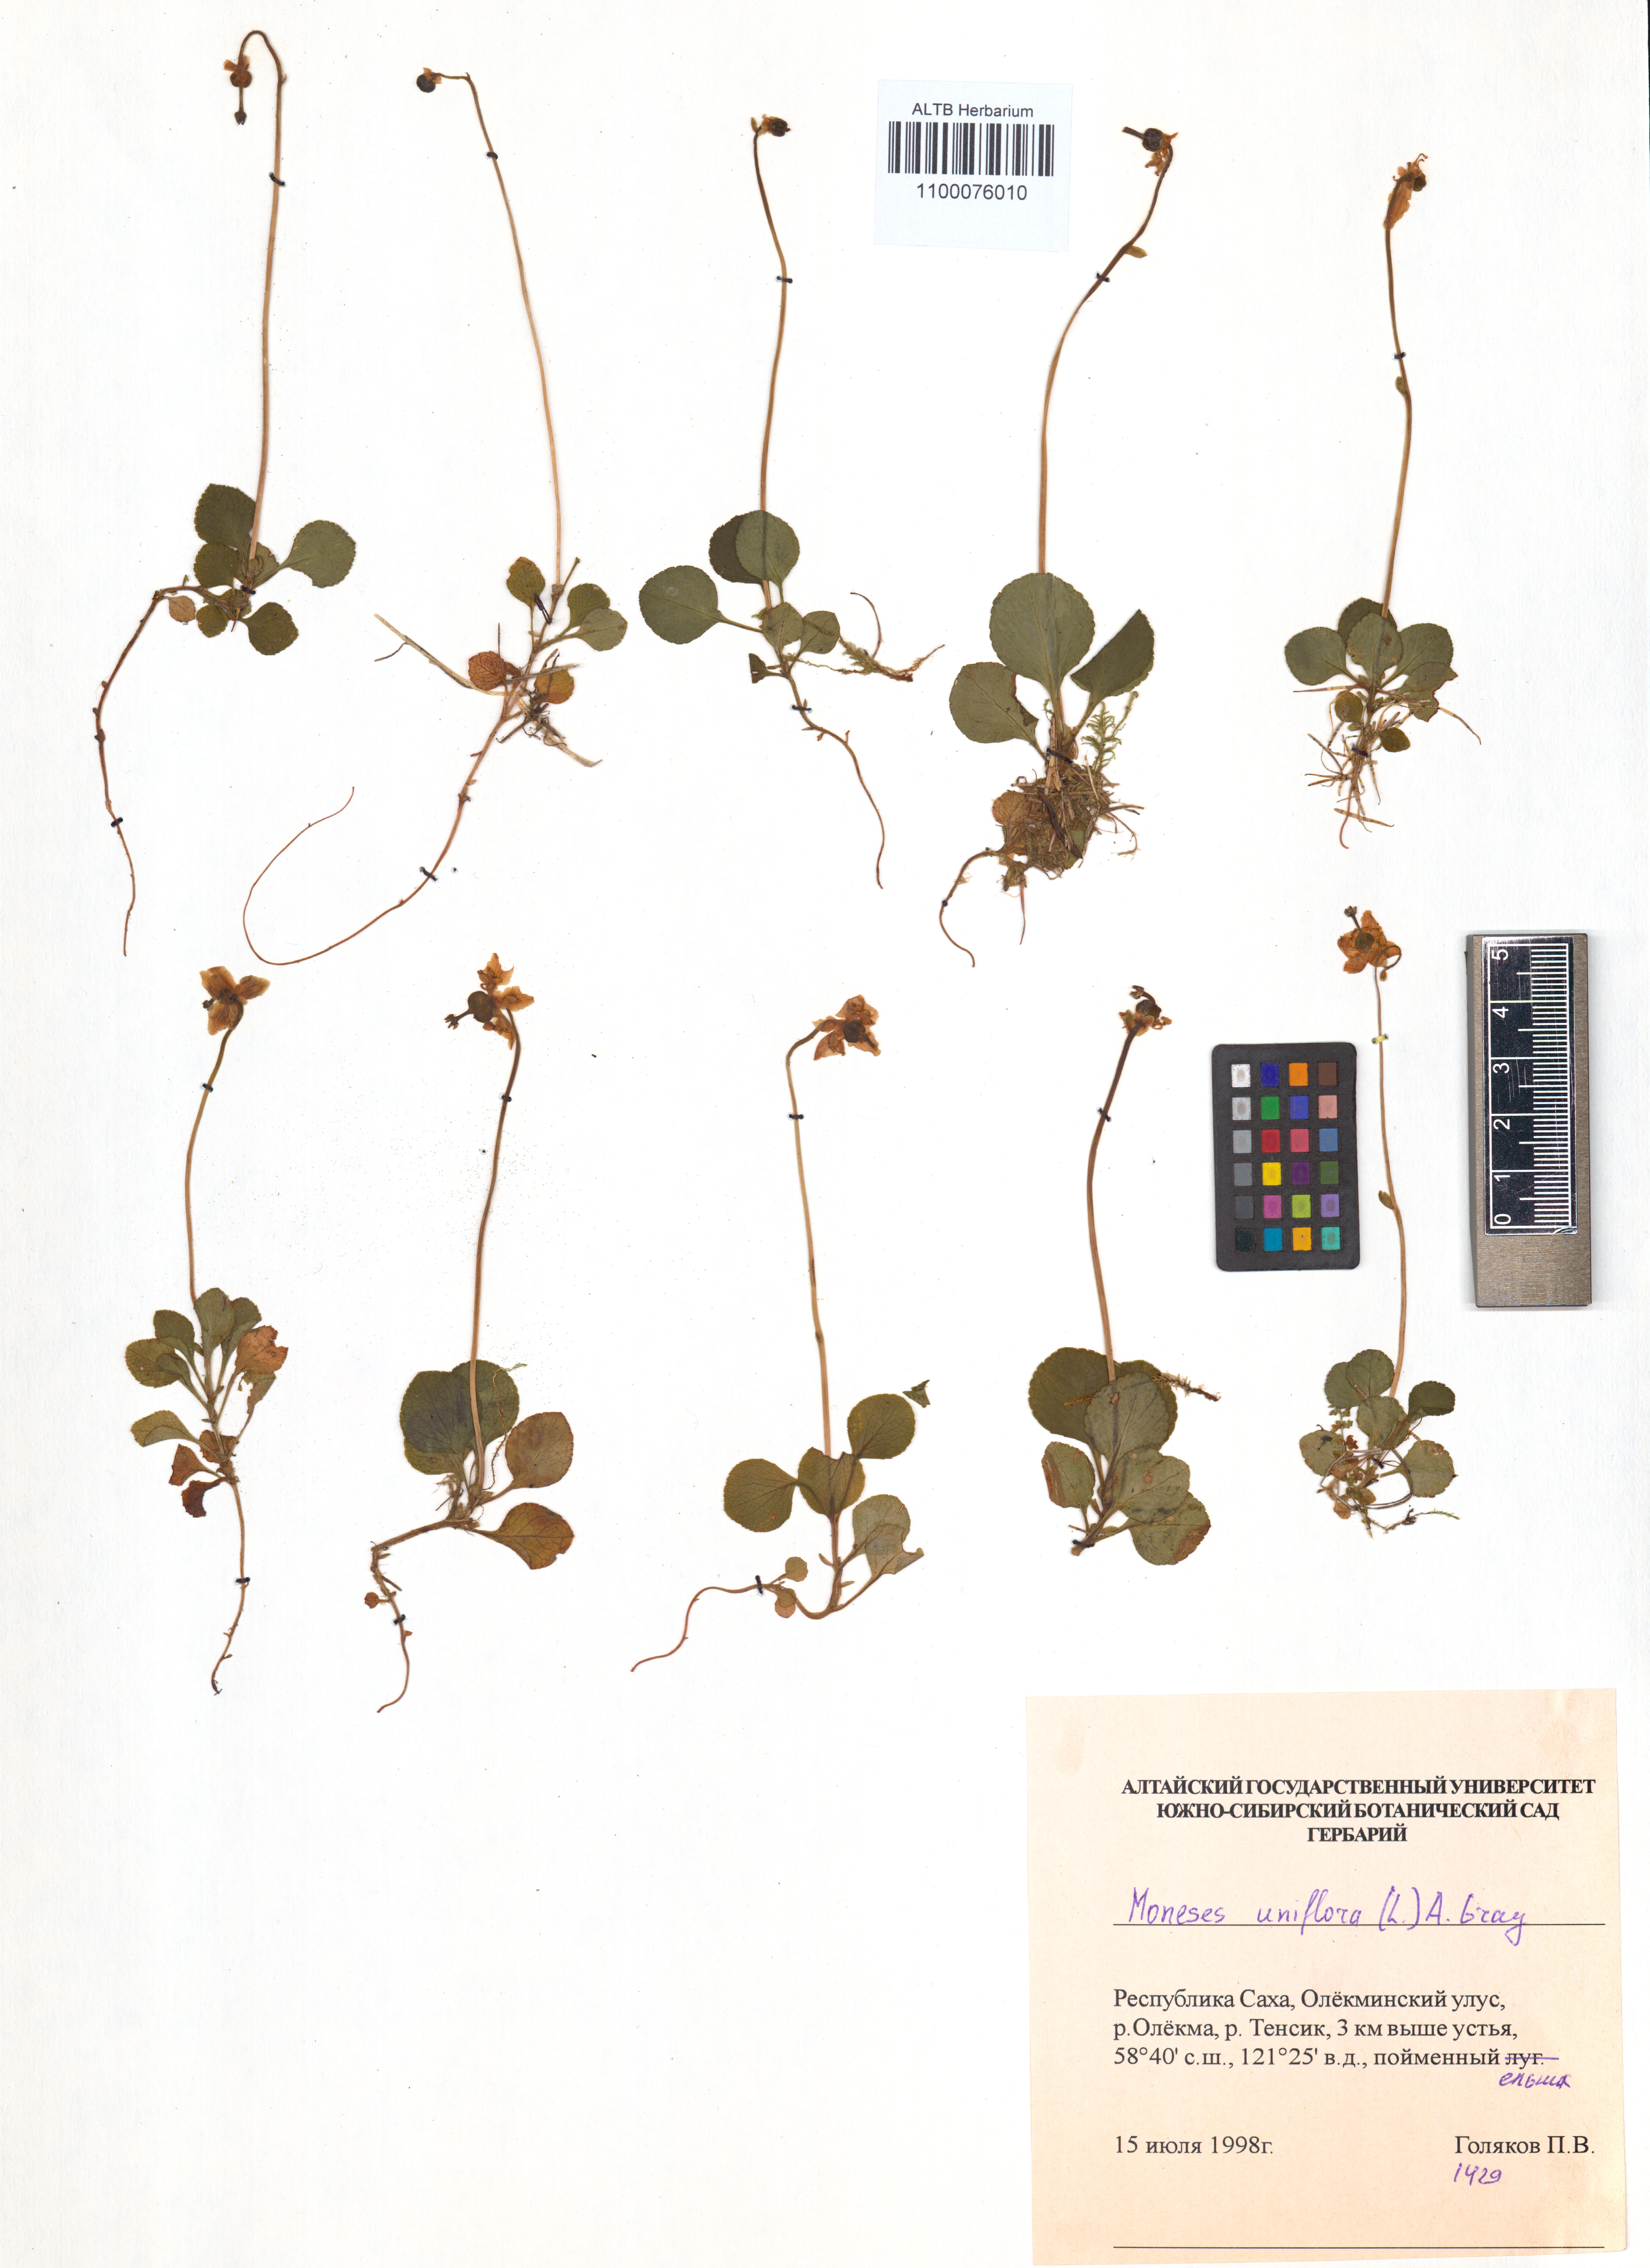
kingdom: Plantae
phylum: Tracheophyta
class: Magnoliopsida
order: Ericales
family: Ericaceae
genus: Moneses
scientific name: Moneses uniflora
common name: One-flowered wintergreen
